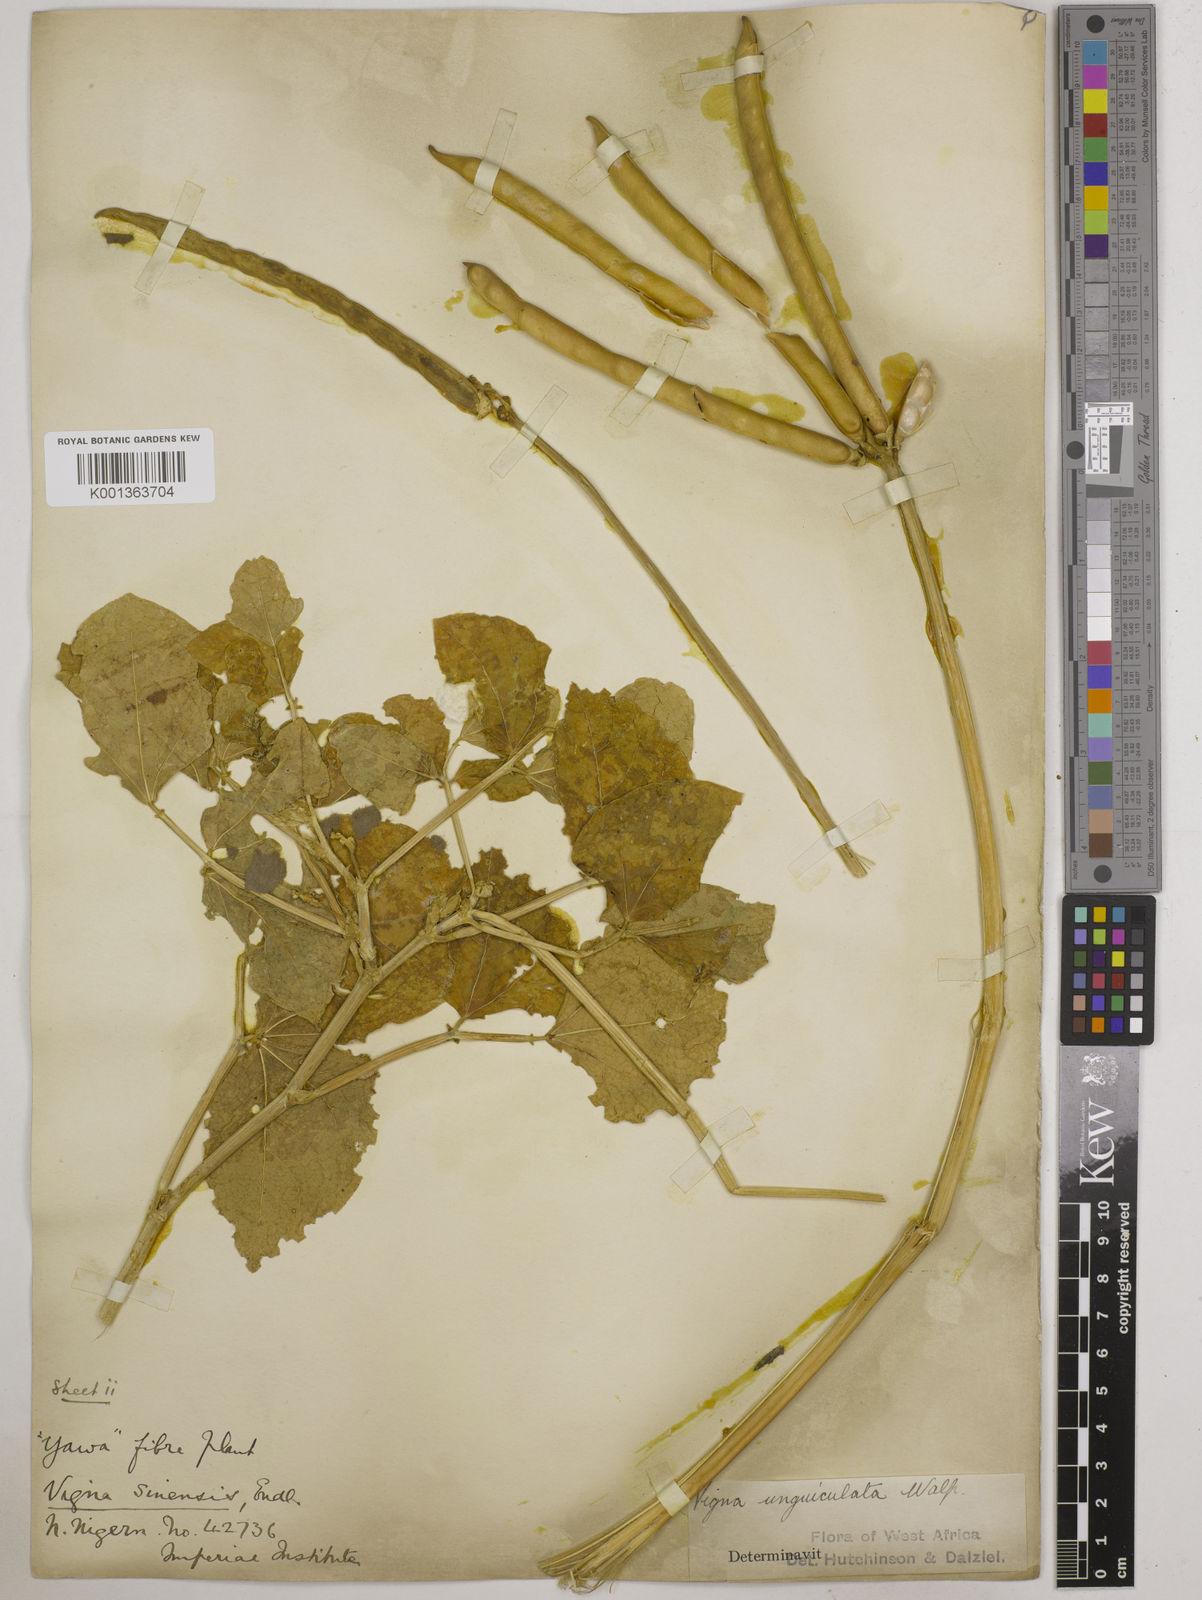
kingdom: Plantae
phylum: Tracheophyta
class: Magnoliopsida
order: Fabales
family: Fabaceae
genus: Vigna
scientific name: Vigna unguiculata
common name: Cowpea
